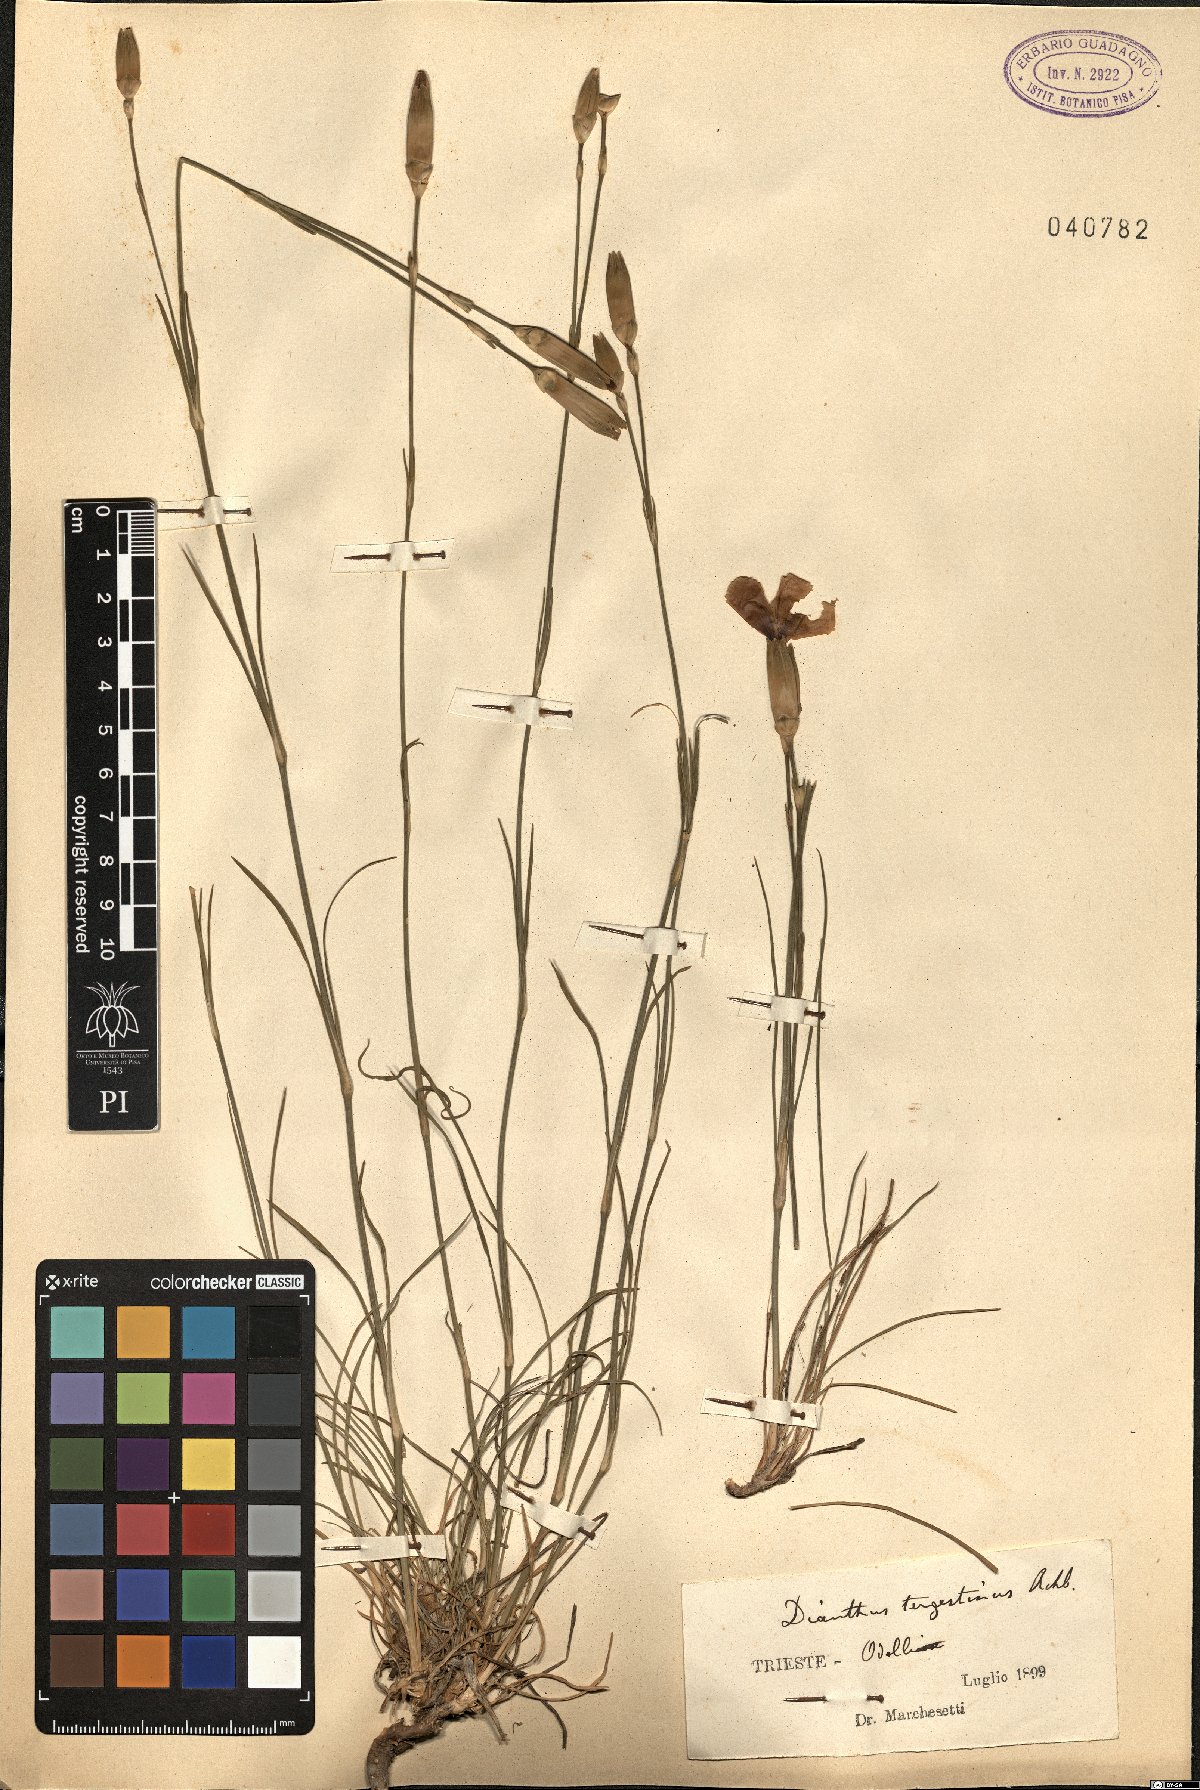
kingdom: Plantae
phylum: Tracheophyta
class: Magnoliopsida
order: Caryophyllales
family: Caryophyllaceae
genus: Dianthus
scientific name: Dianthus sylvestris
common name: Wood pink
